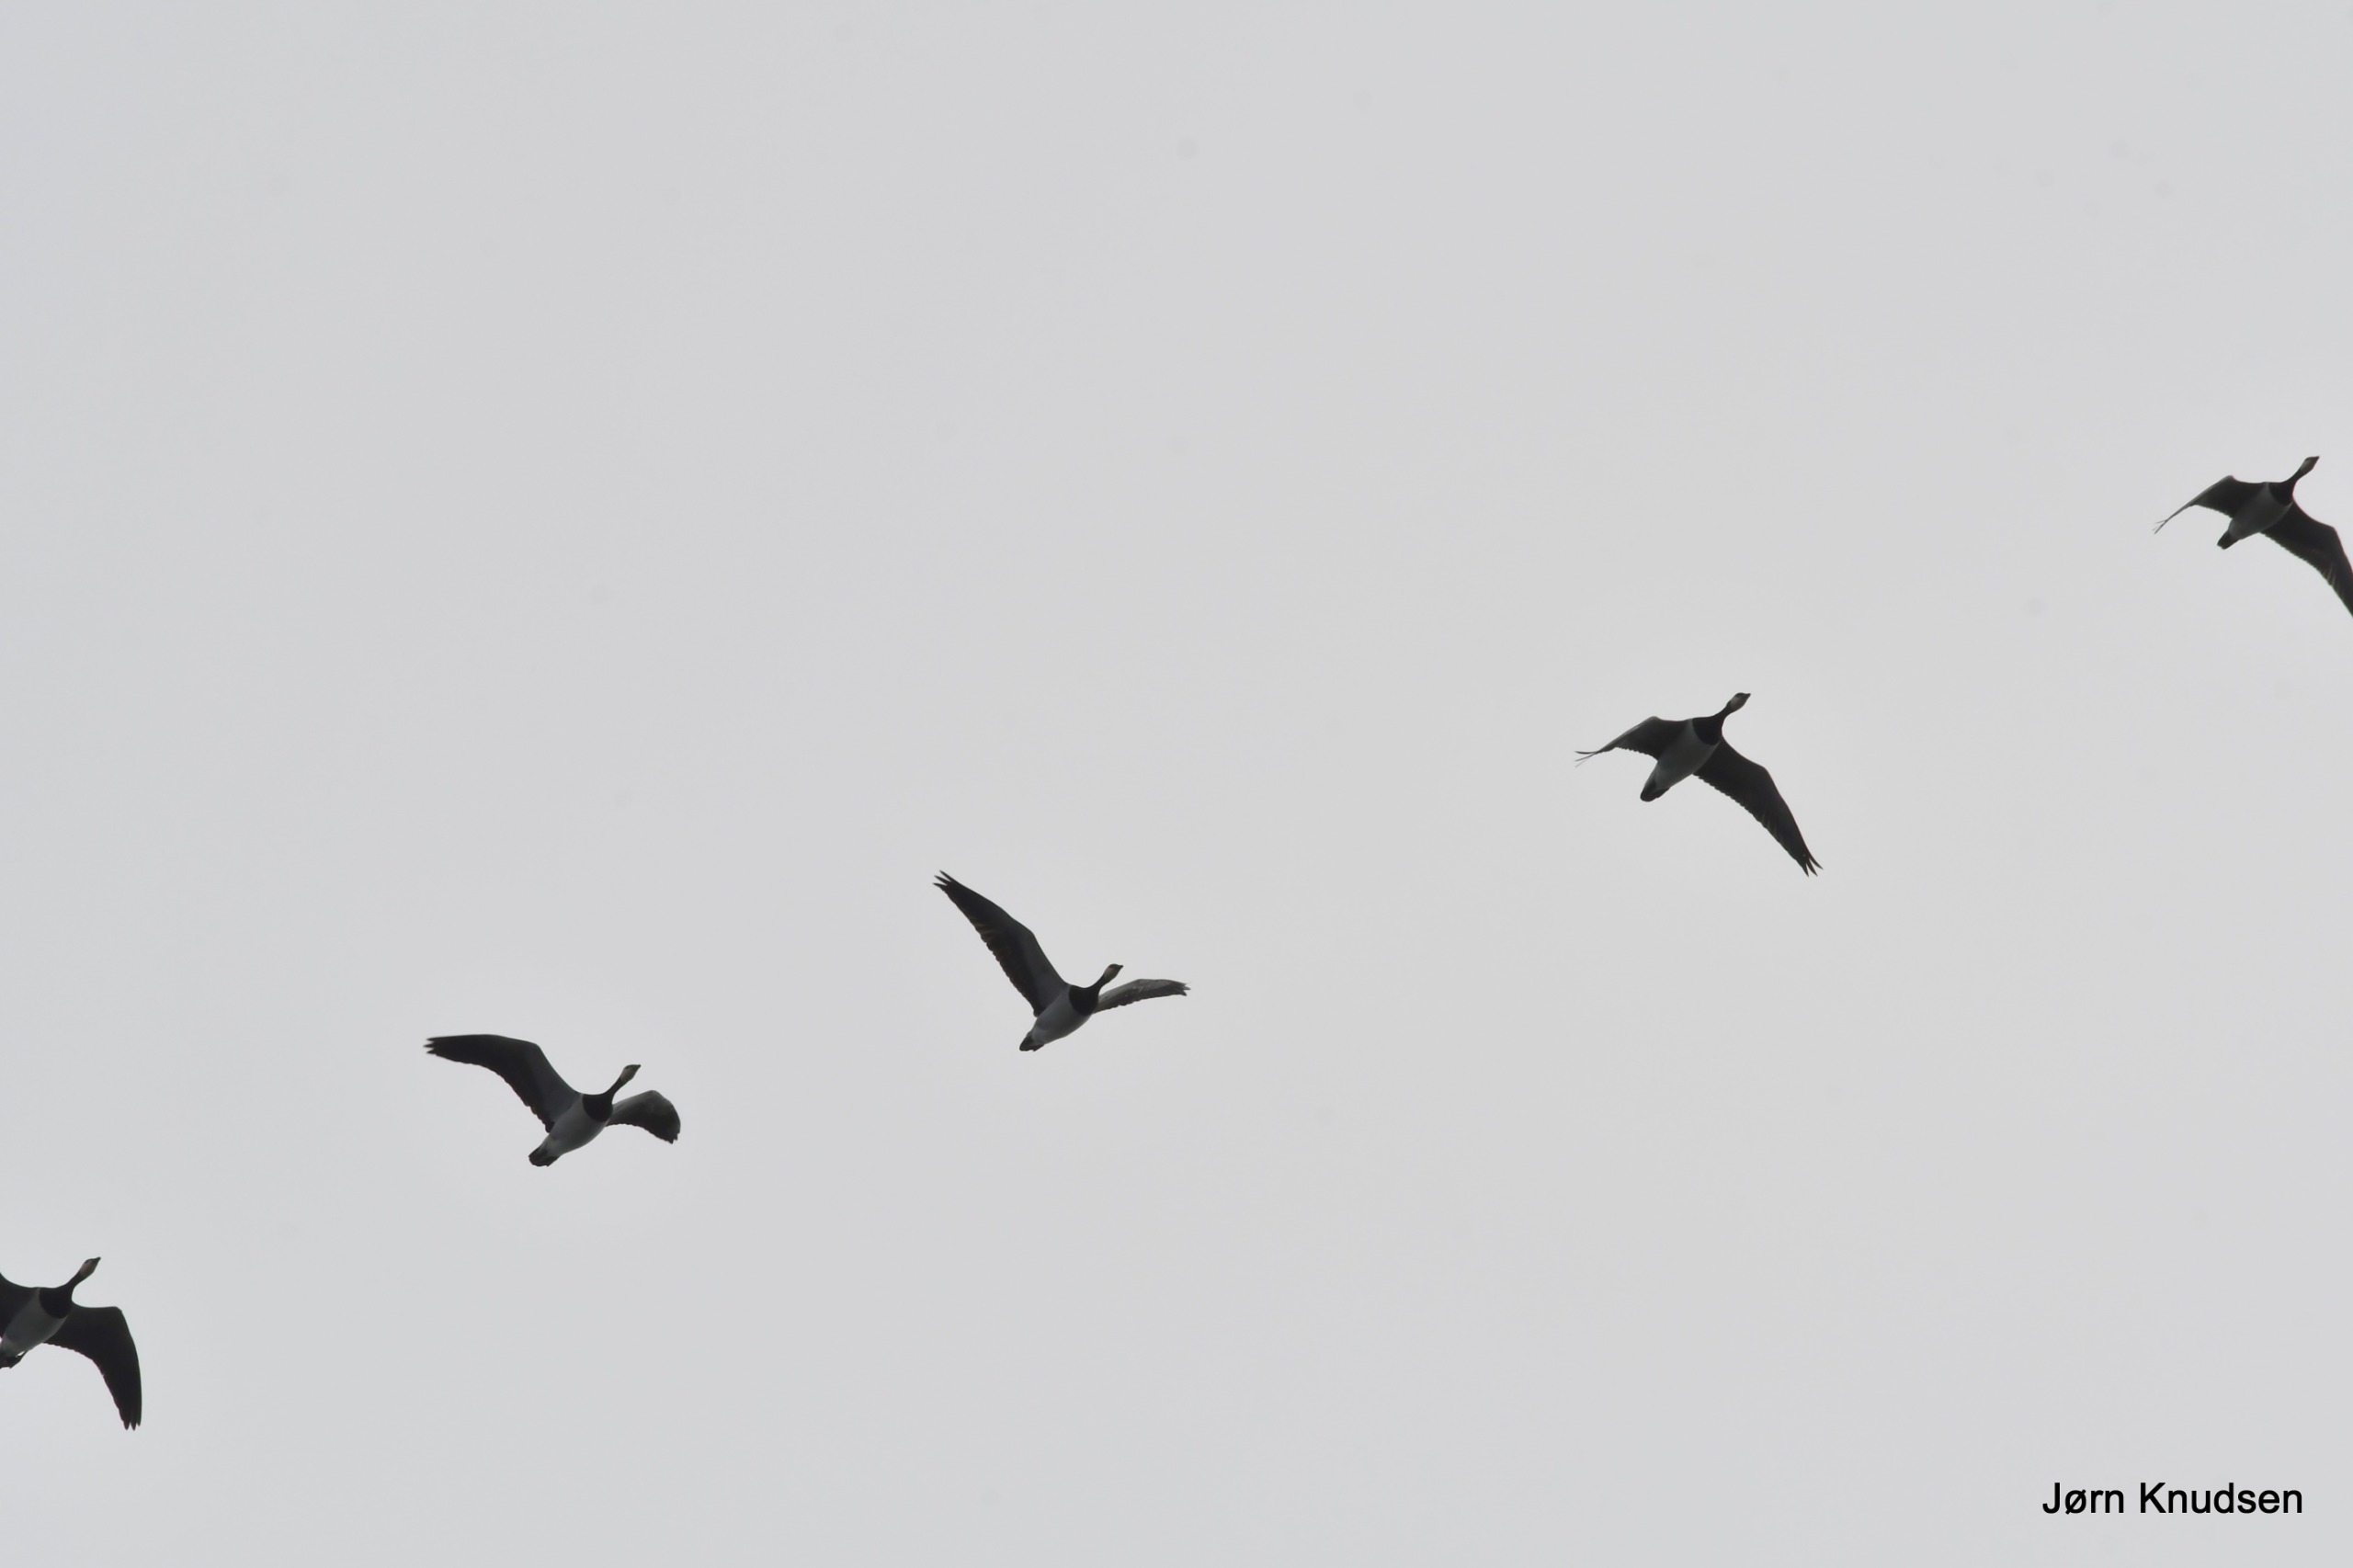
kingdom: Animalia
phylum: Chordata
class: Aves
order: Anseriformes
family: Anatidae
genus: Branta
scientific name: Branta leucopsis
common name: Bramgås
